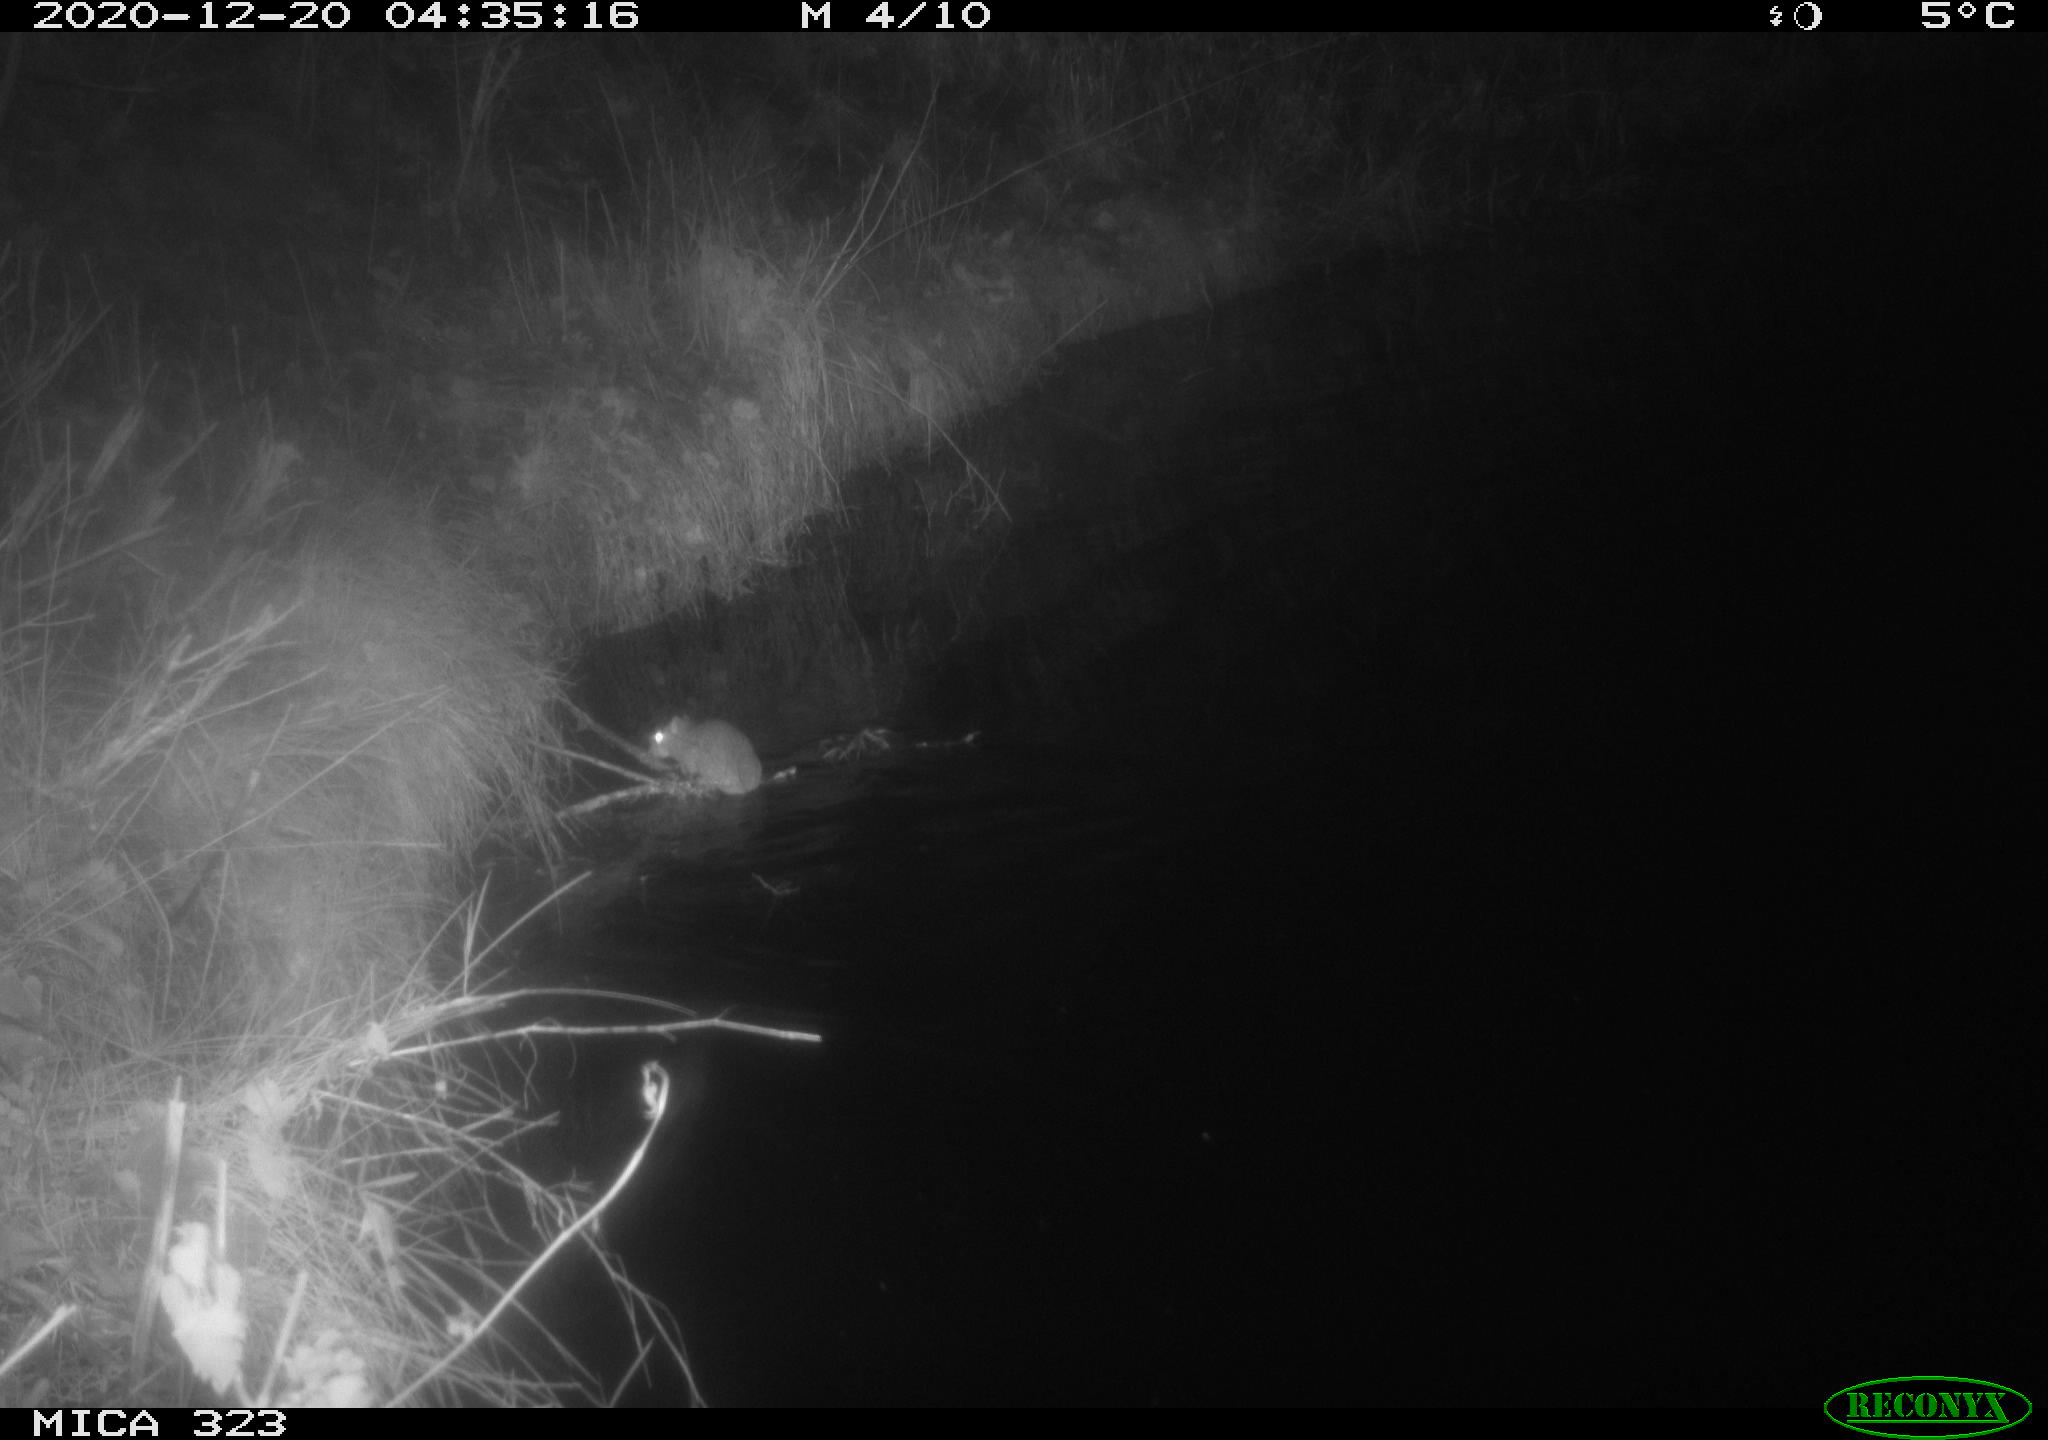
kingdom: Animalia
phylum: Chordata
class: Mammalia
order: Rodentia
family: Muridae
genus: Rattus
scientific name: Rattus norvegicus
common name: Brown rat
